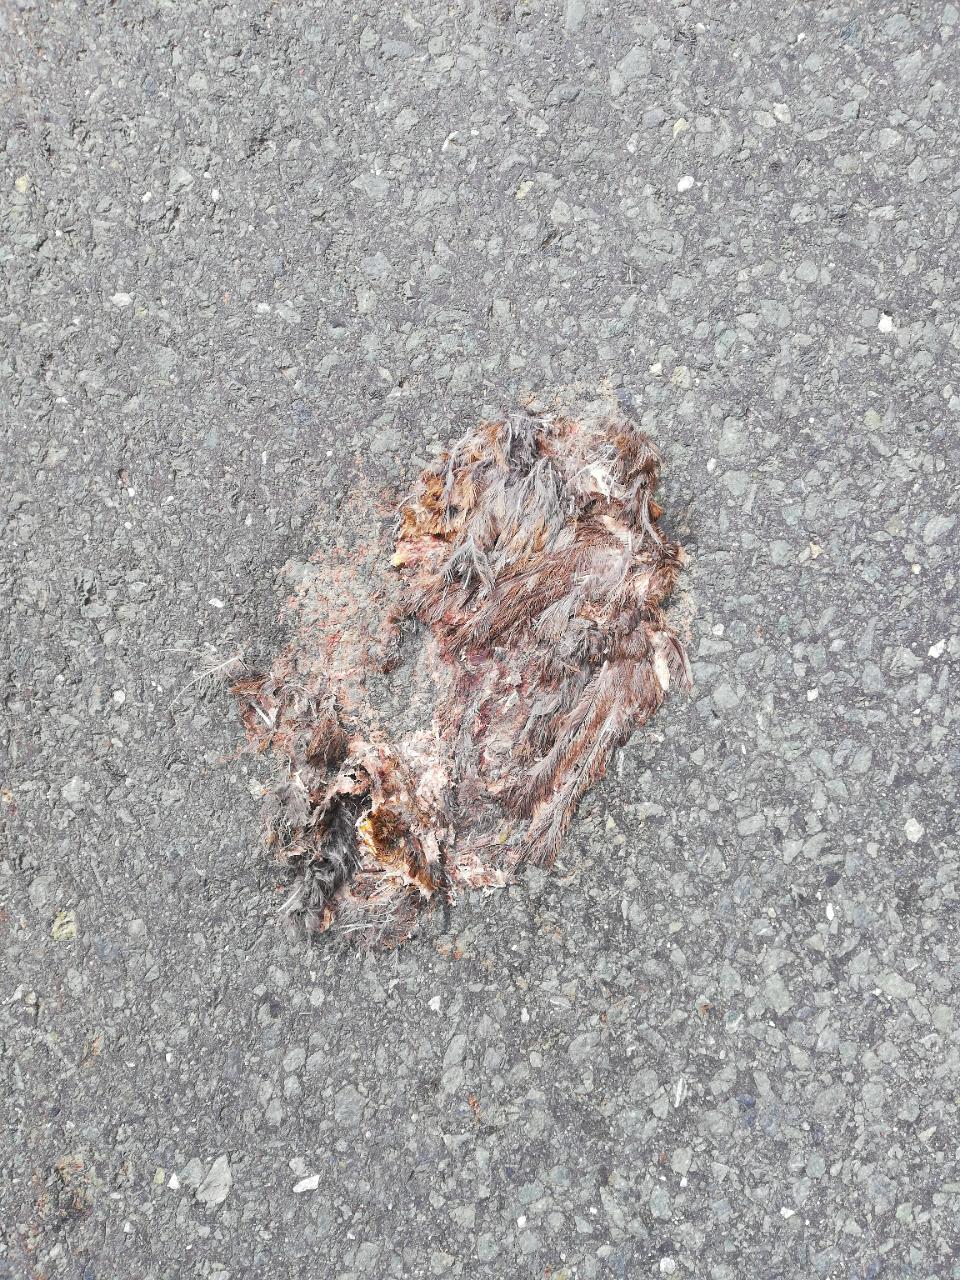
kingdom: Animalia
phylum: Chordata
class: Aves
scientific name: Aves
